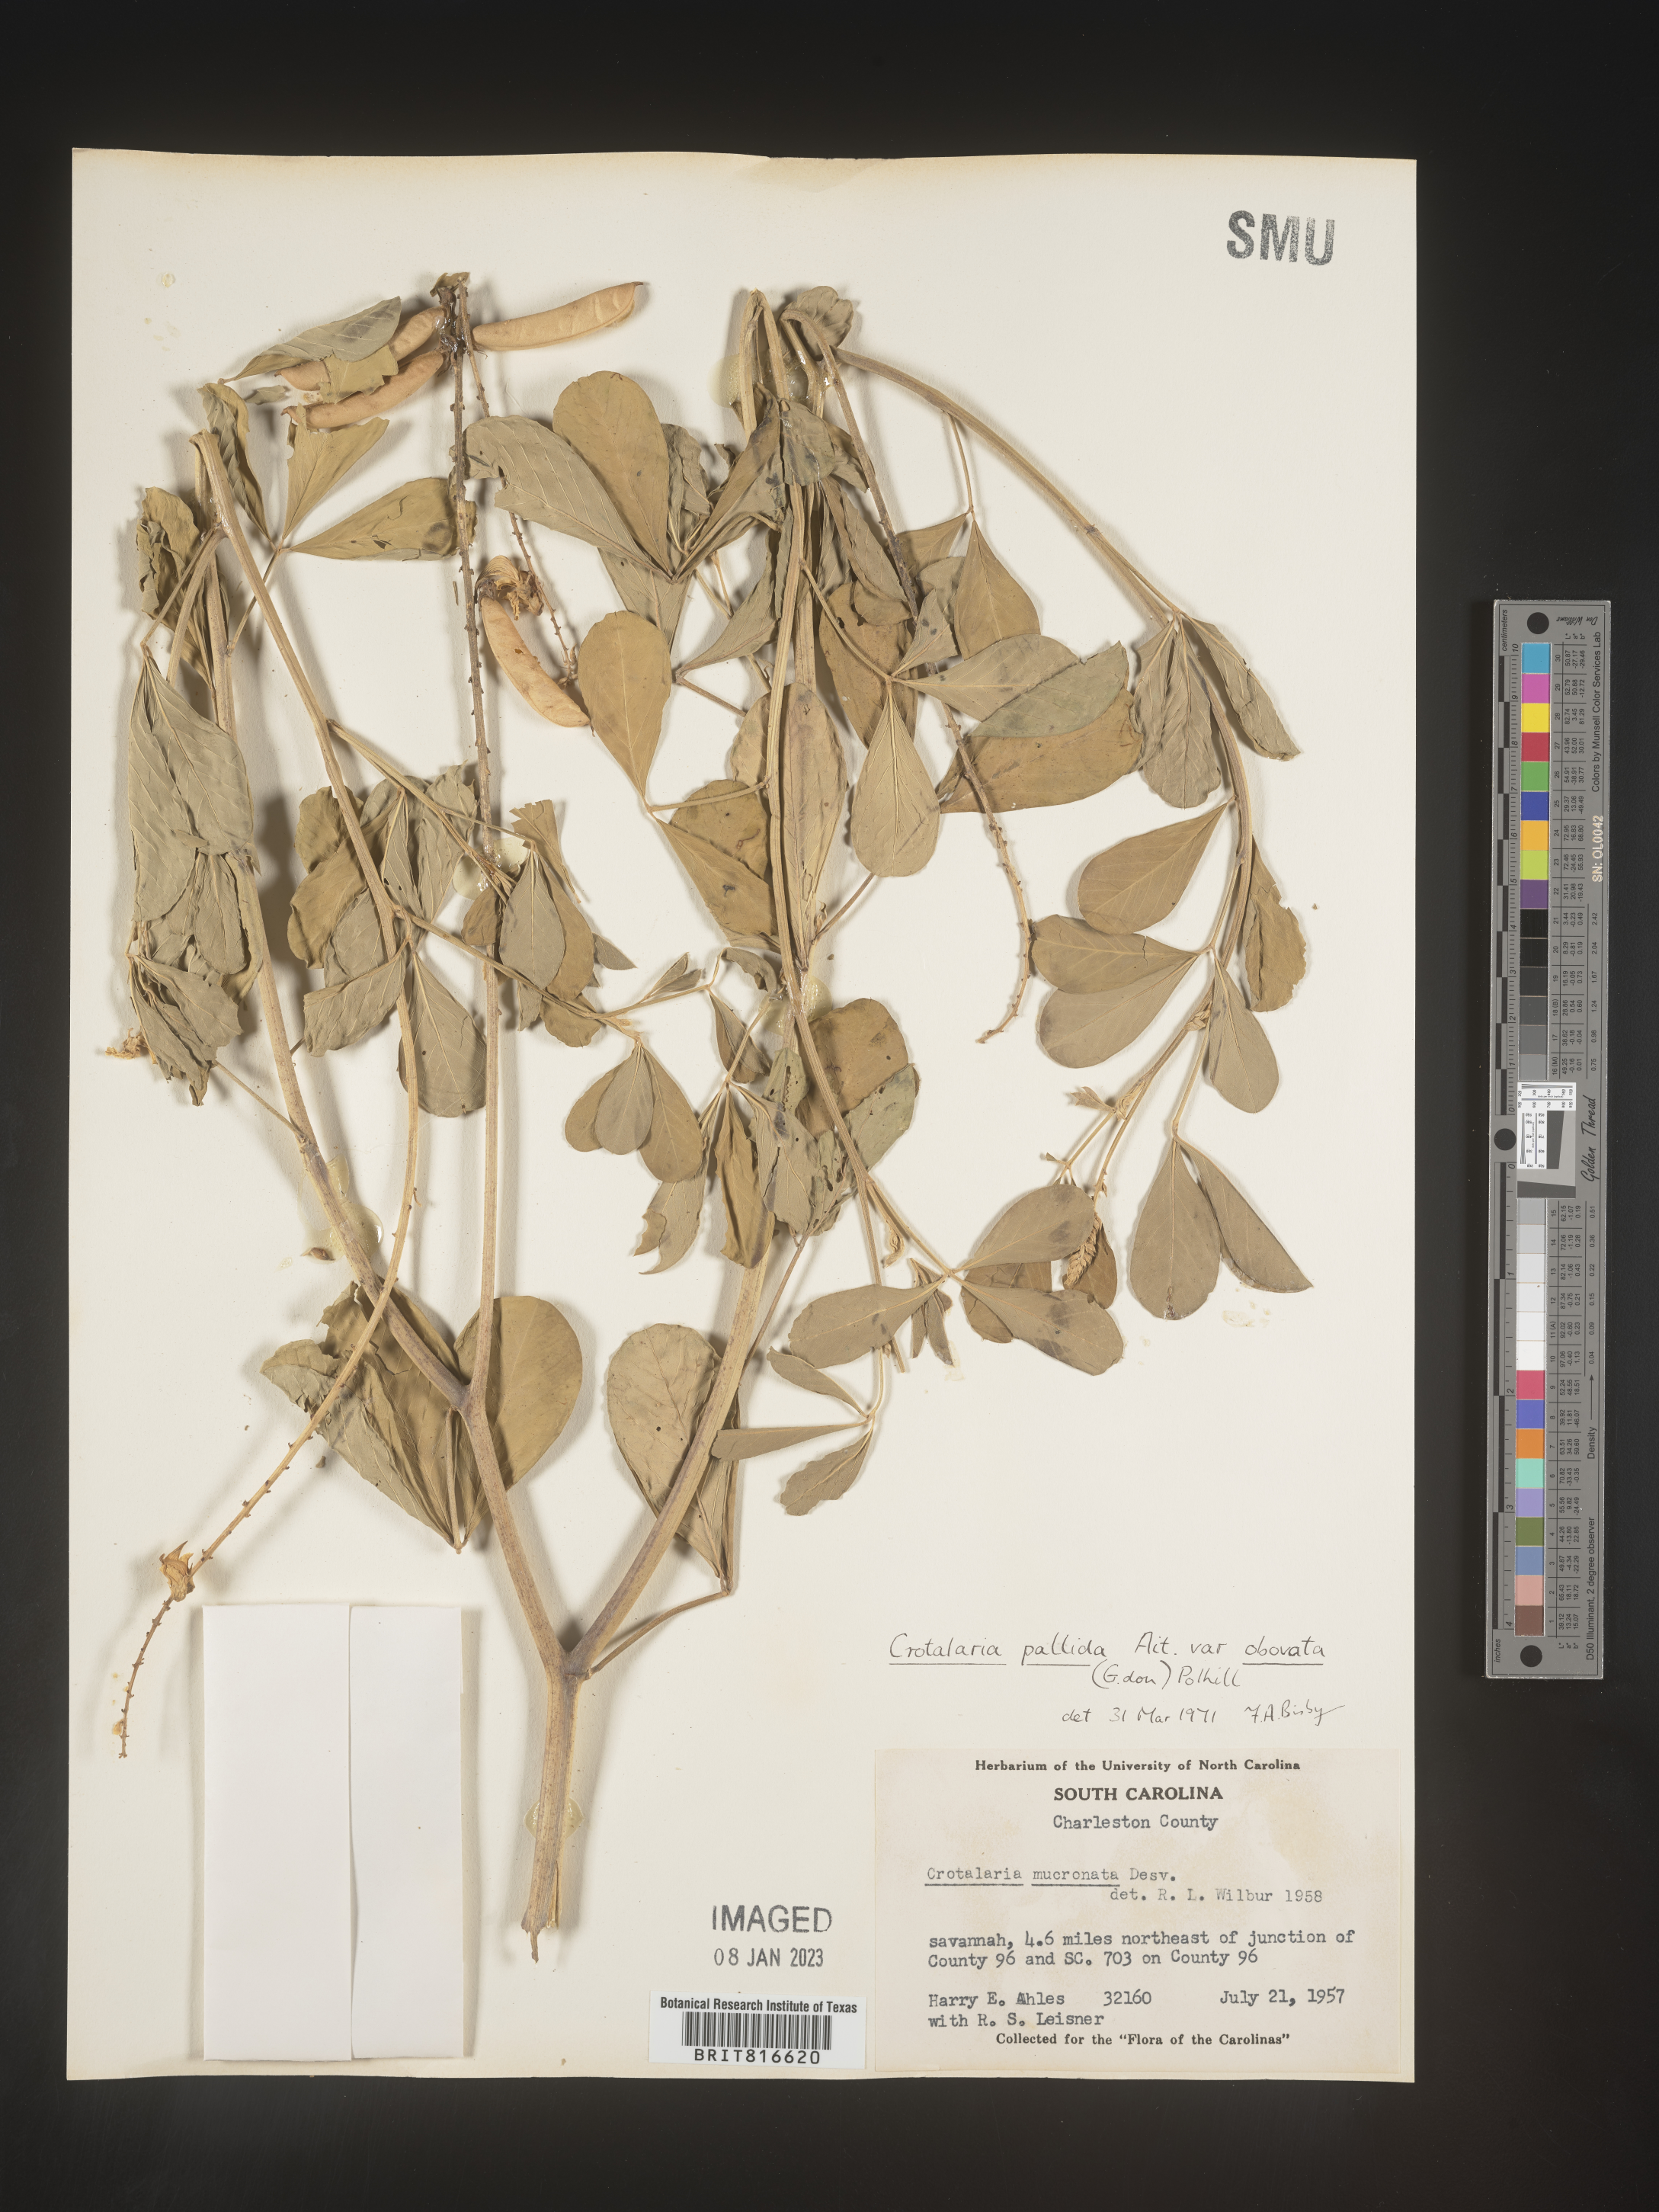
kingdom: Plantae
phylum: Tracheophyta
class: Magnoliopsida
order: Fabales
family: Fabaceae
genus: Crotalaria
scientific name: Crotalaria linifolia
